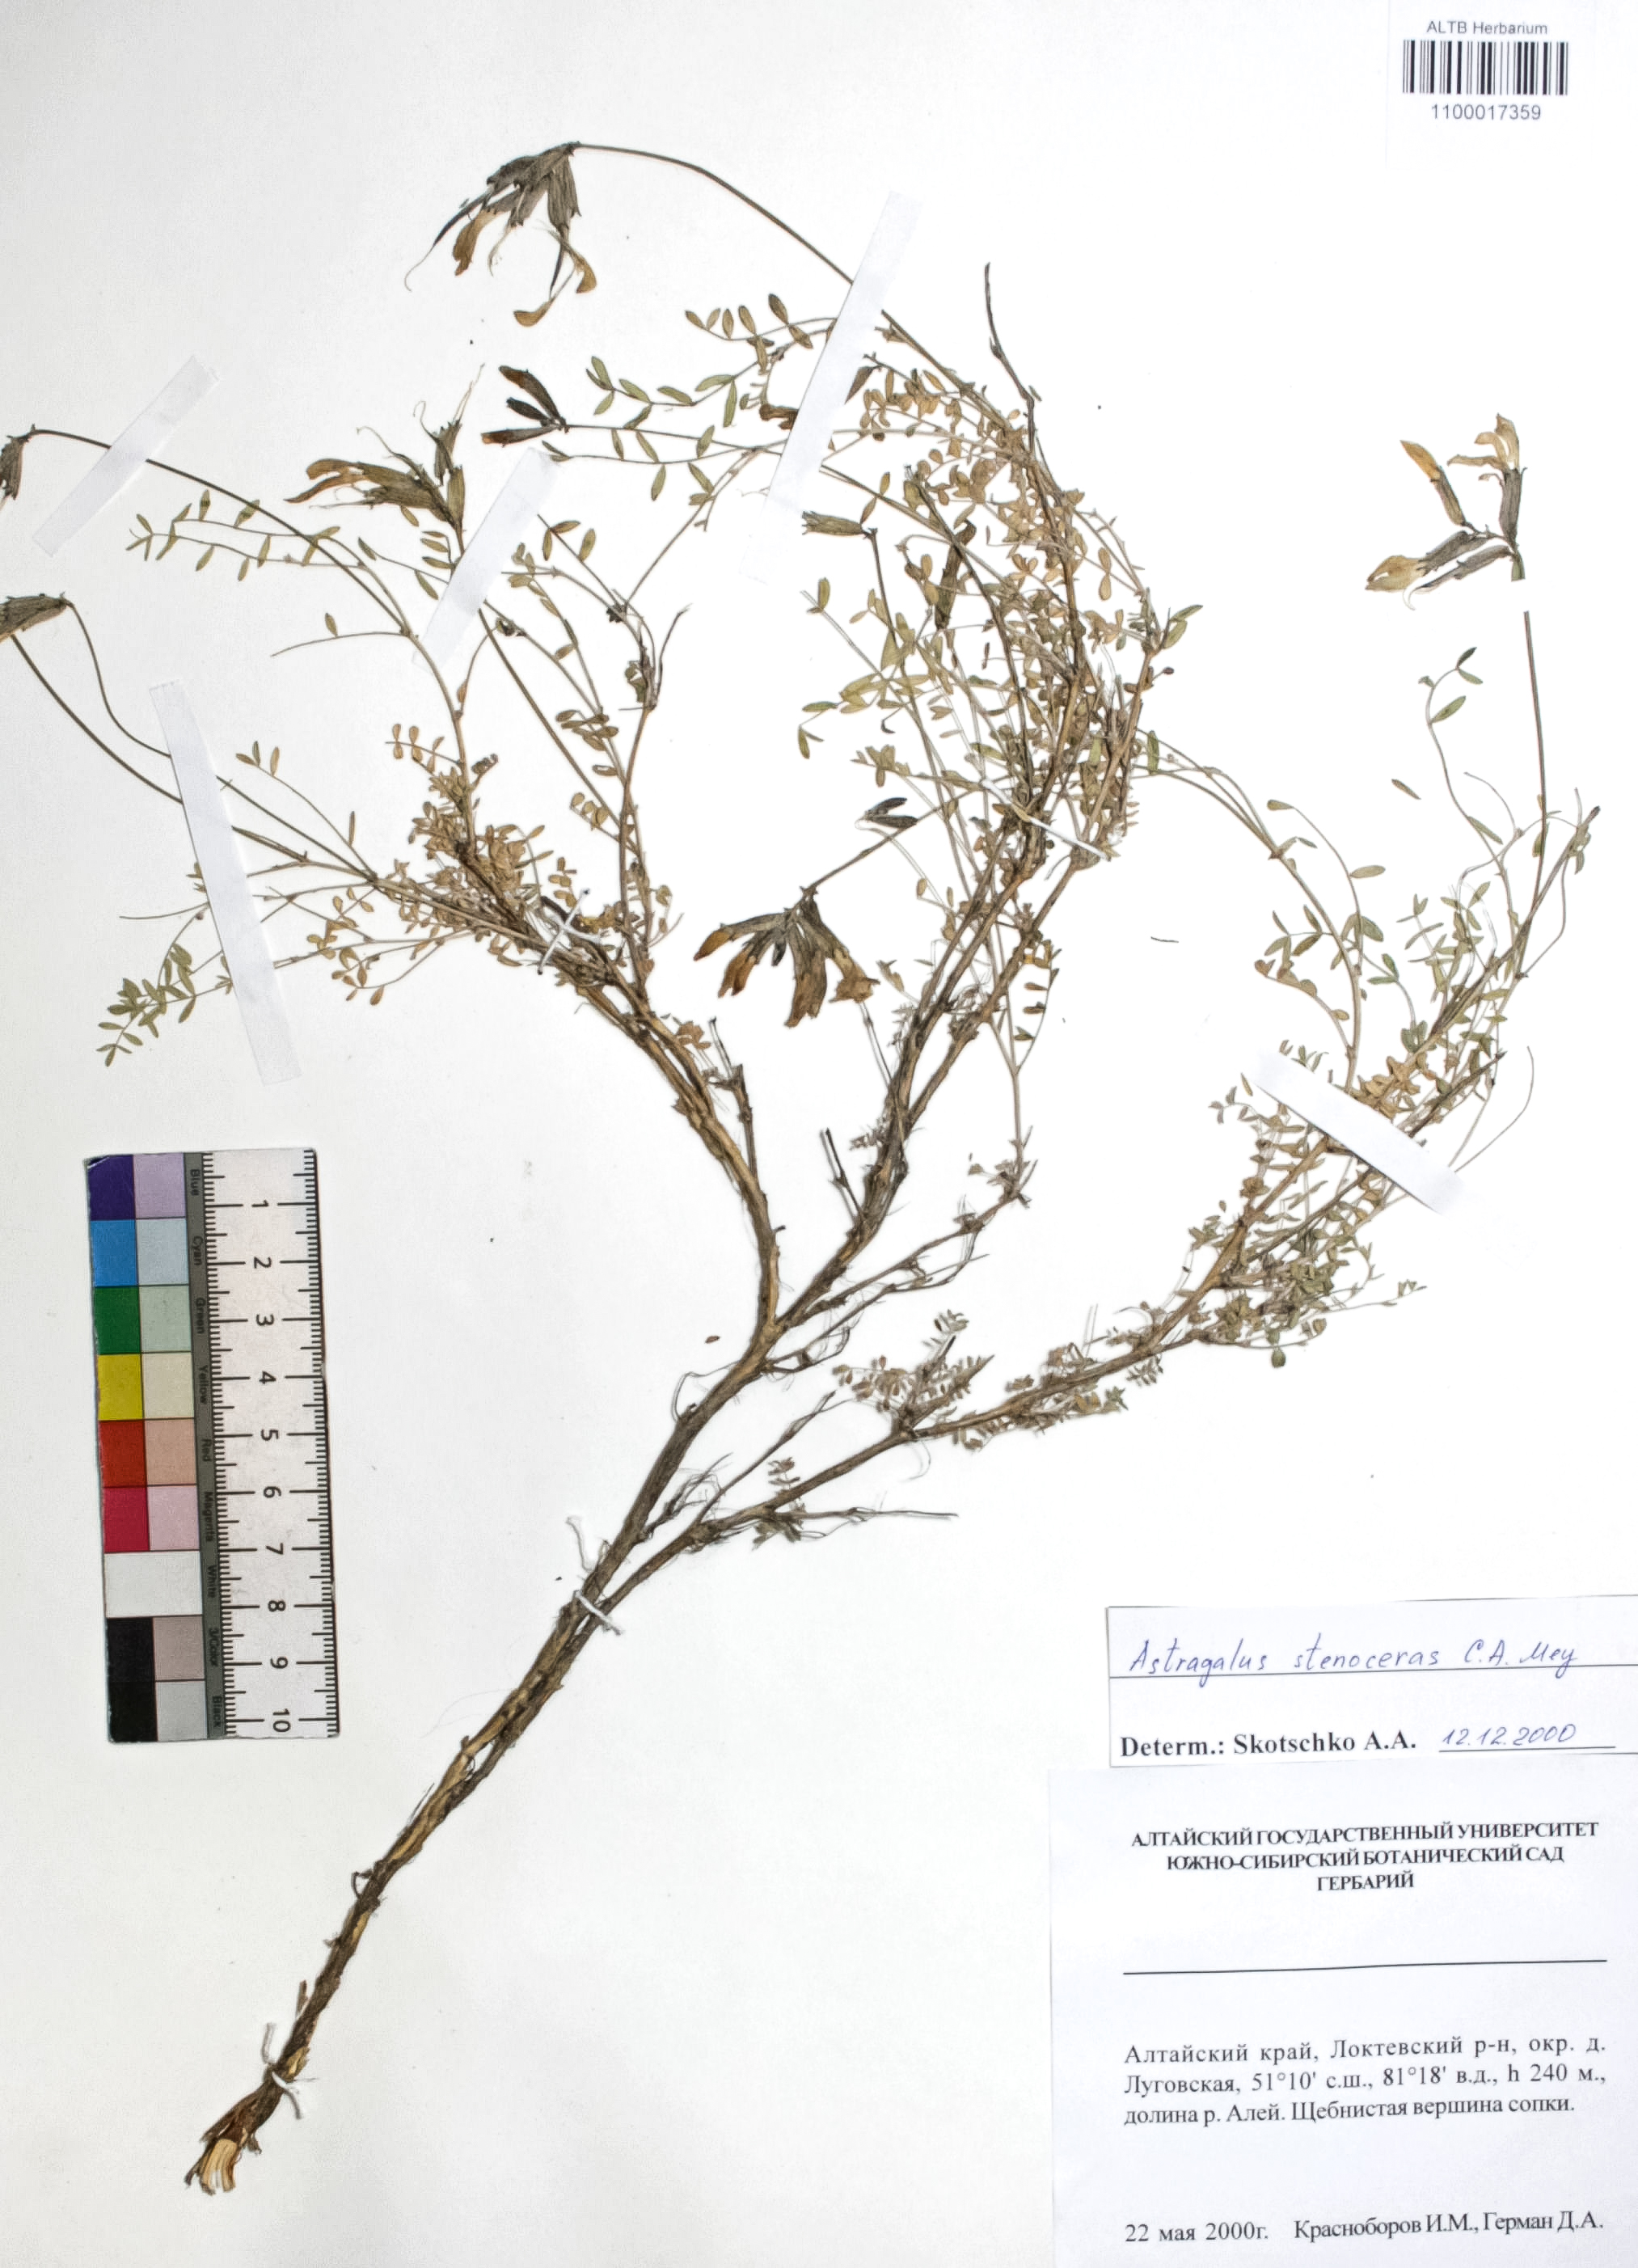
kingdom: Plantae
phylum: Tracheophyta
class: Magnoliopsida
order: Fabales
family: Fabaceae
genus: Astragalus
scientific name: Astragalus stenoceras
